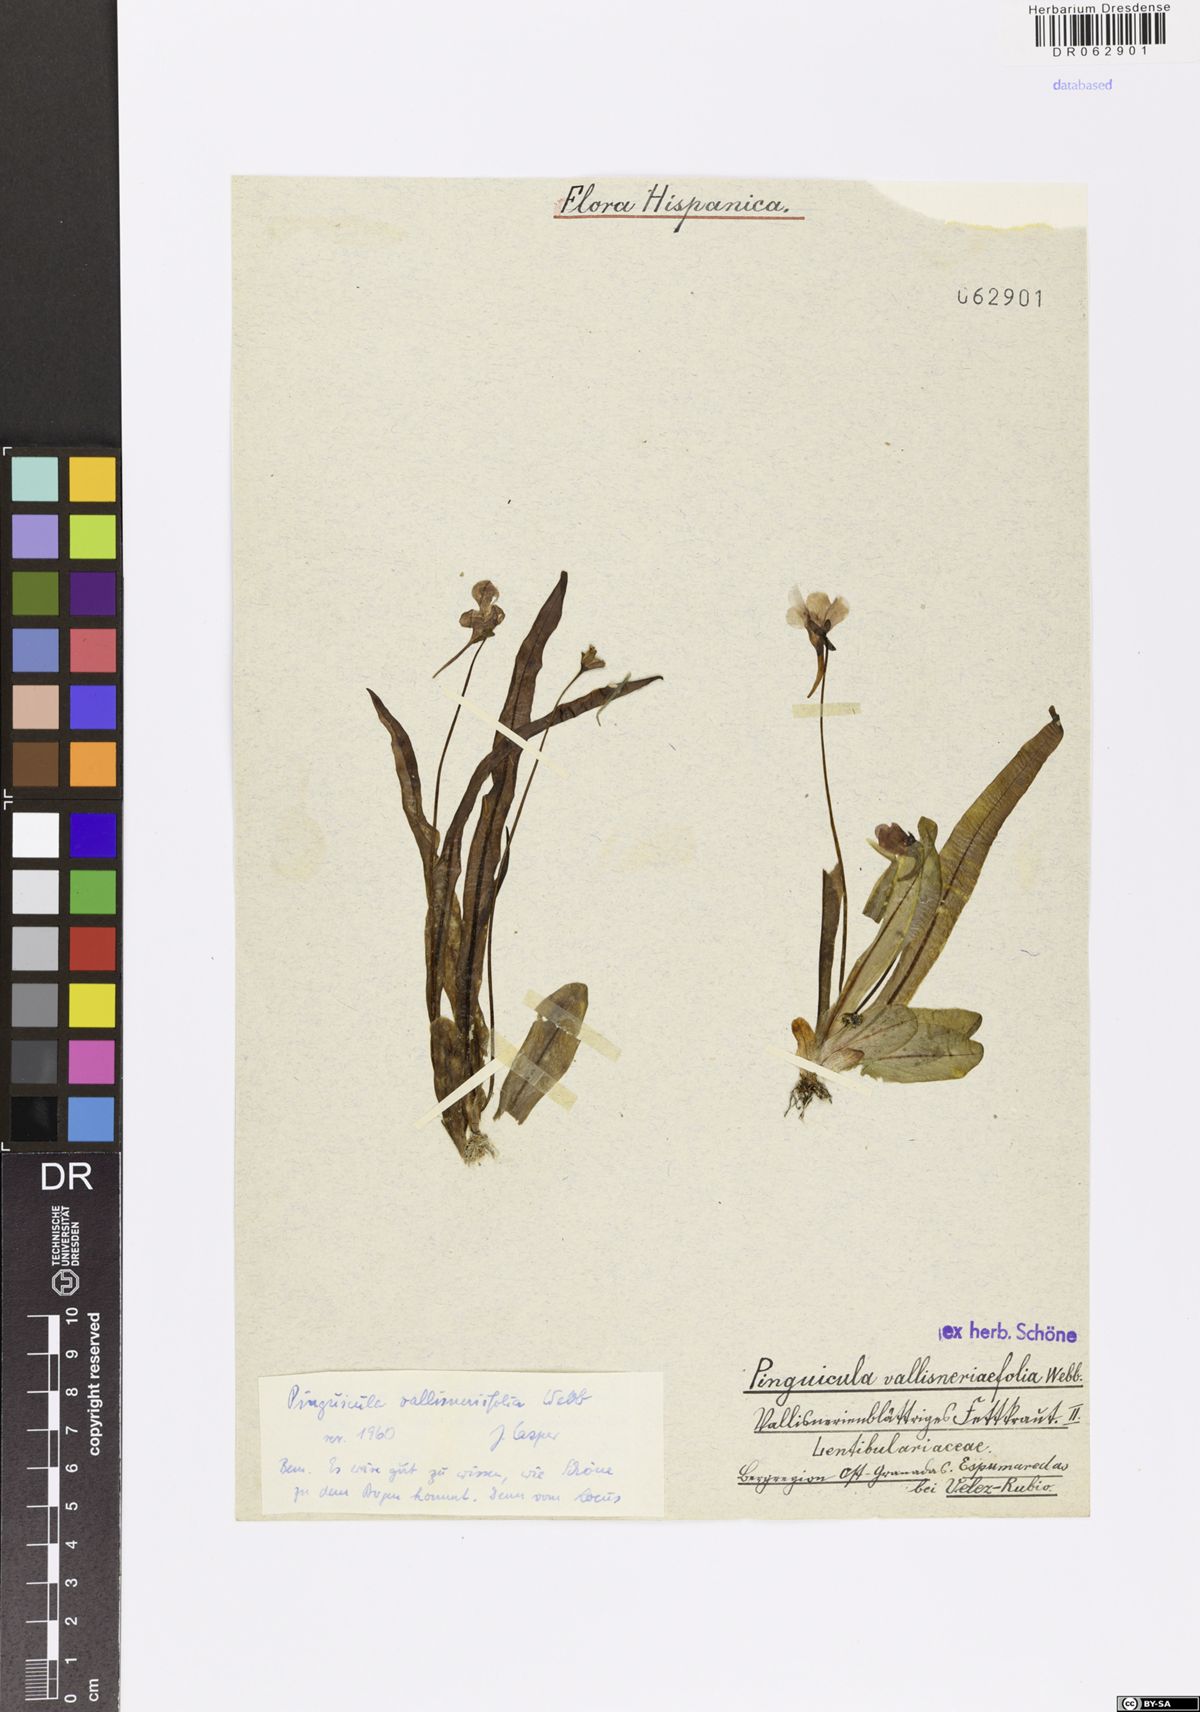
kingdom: Plantae
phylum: Tracheophyta
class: Magnoliopsida
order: Lamiales
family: Lentibulariaceae
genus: Pinguicula
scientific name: Pinguicula vallisneriifolia
